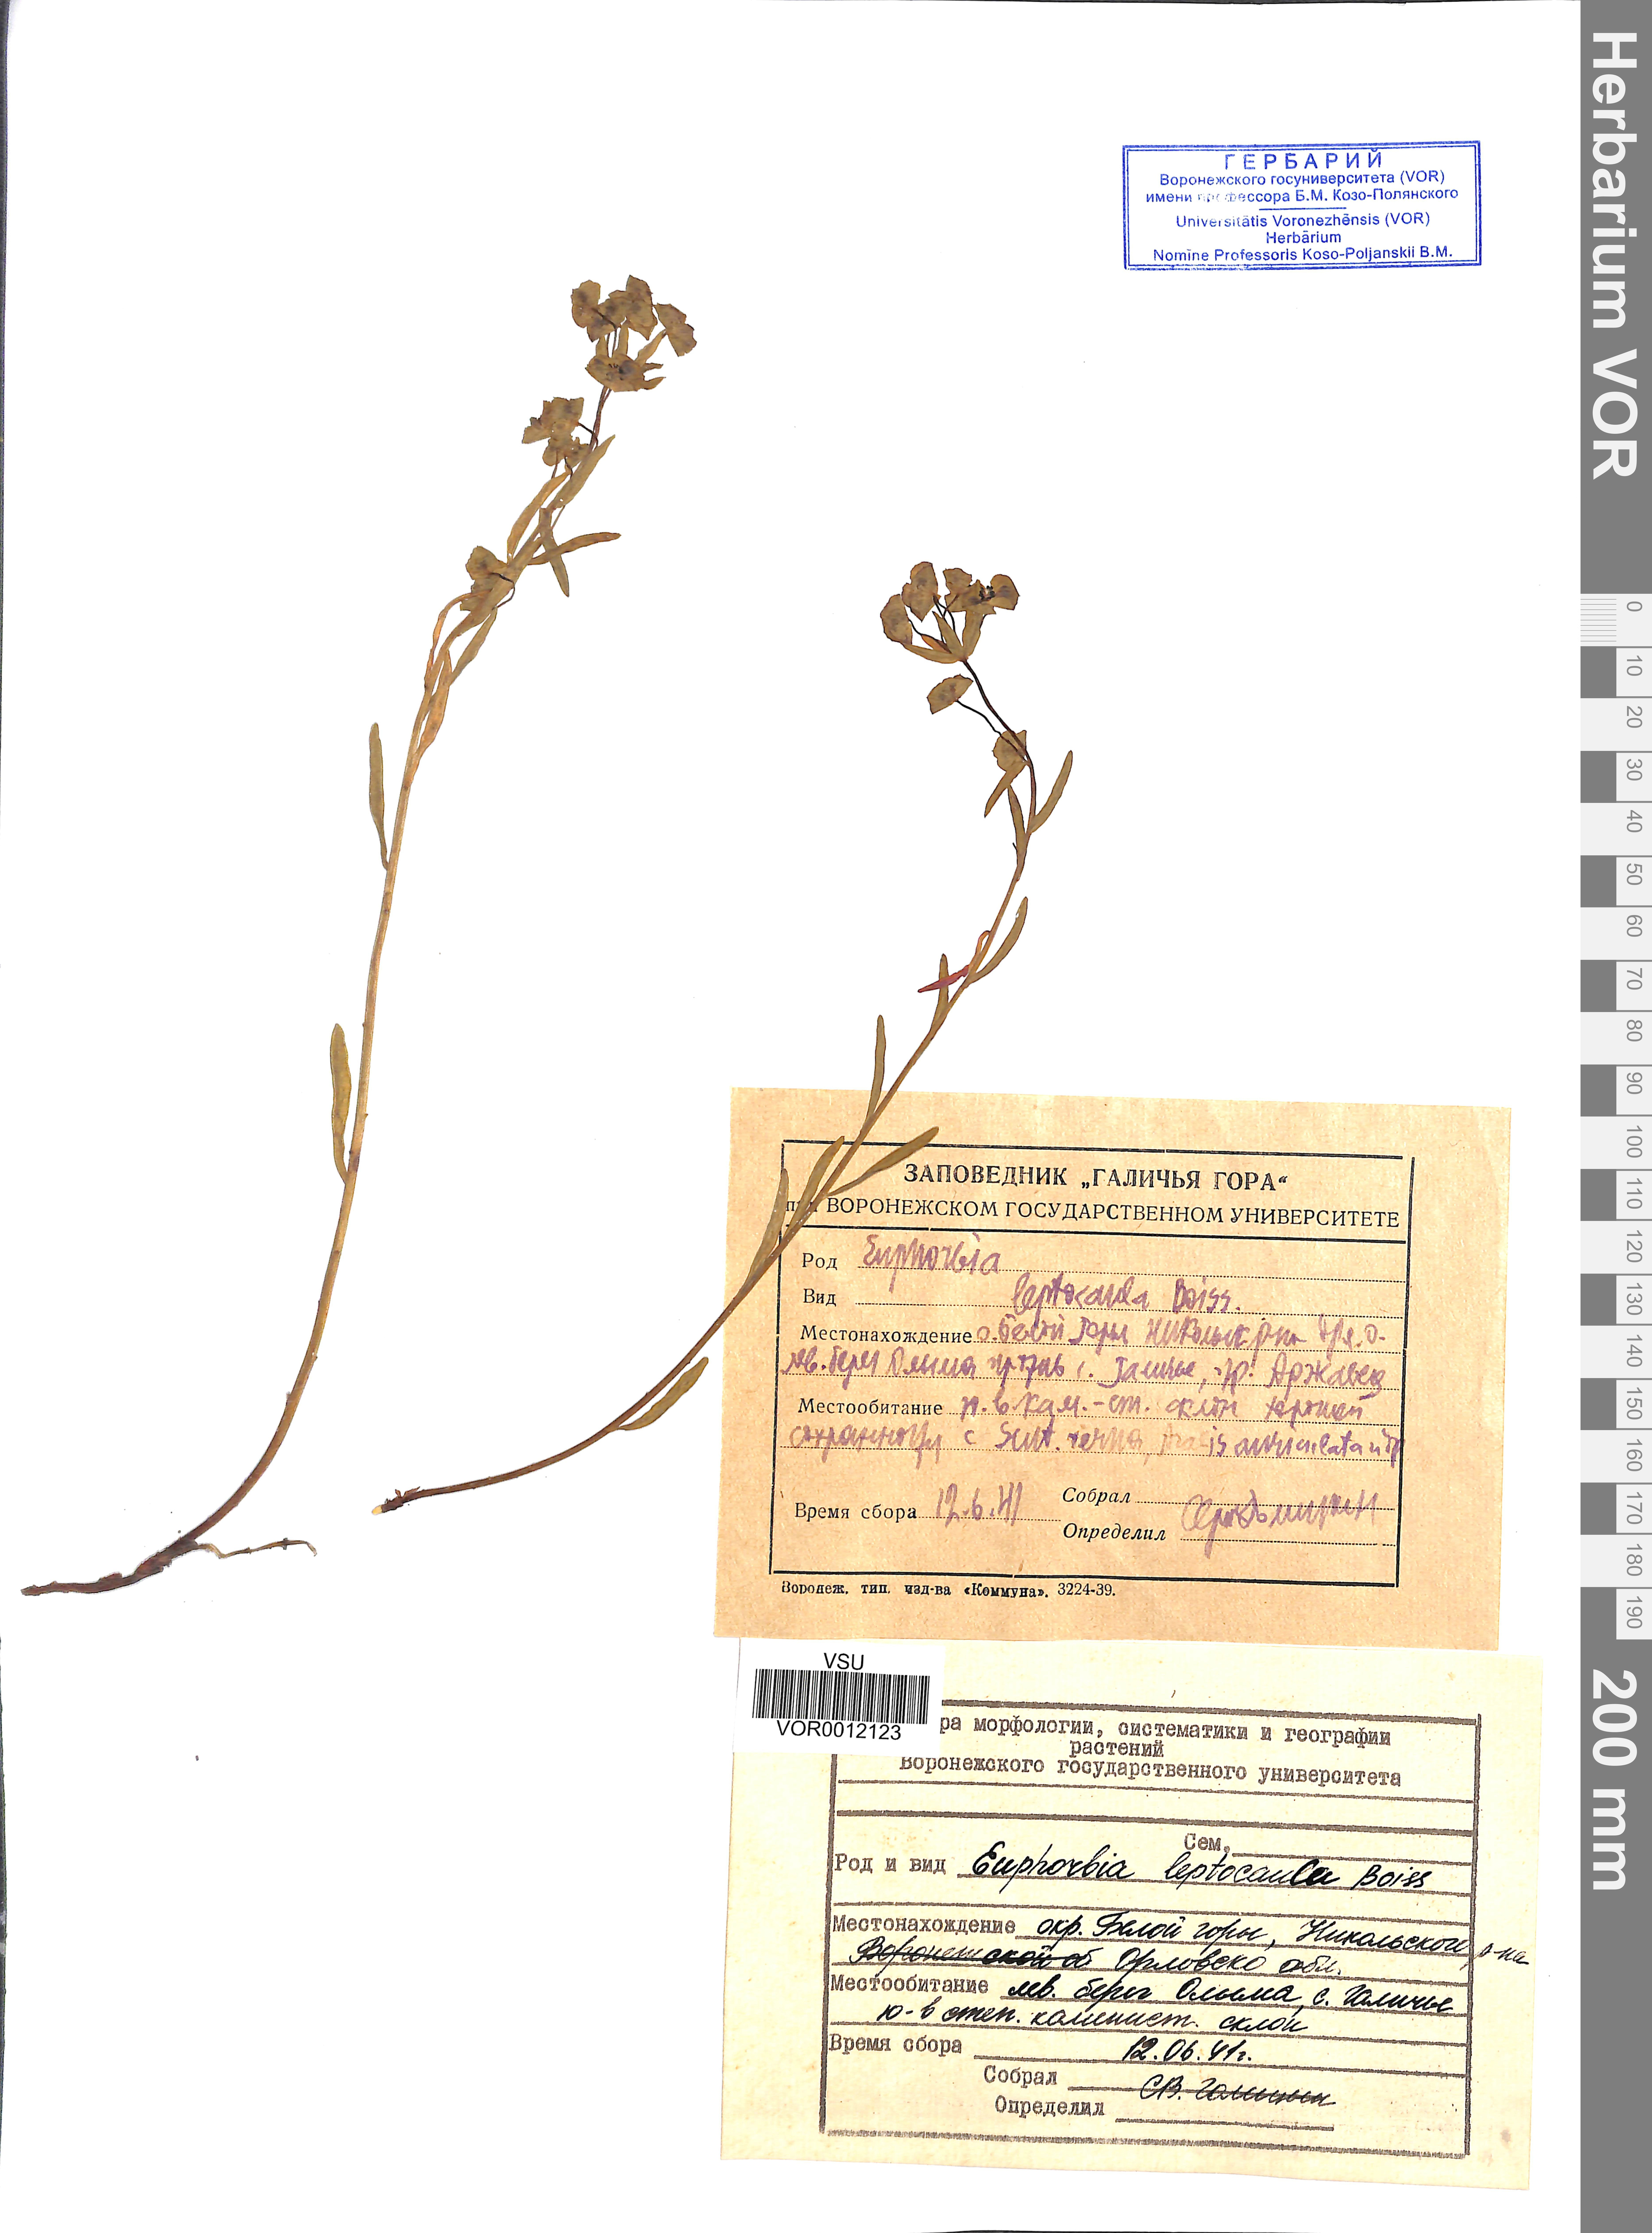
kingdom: Plantae
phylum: Tracheophyta
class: Magnoliopsida
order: Malpighiales
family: Euphorbiaceae
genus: Euphorbia
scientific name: Euphorbia leptocaula
